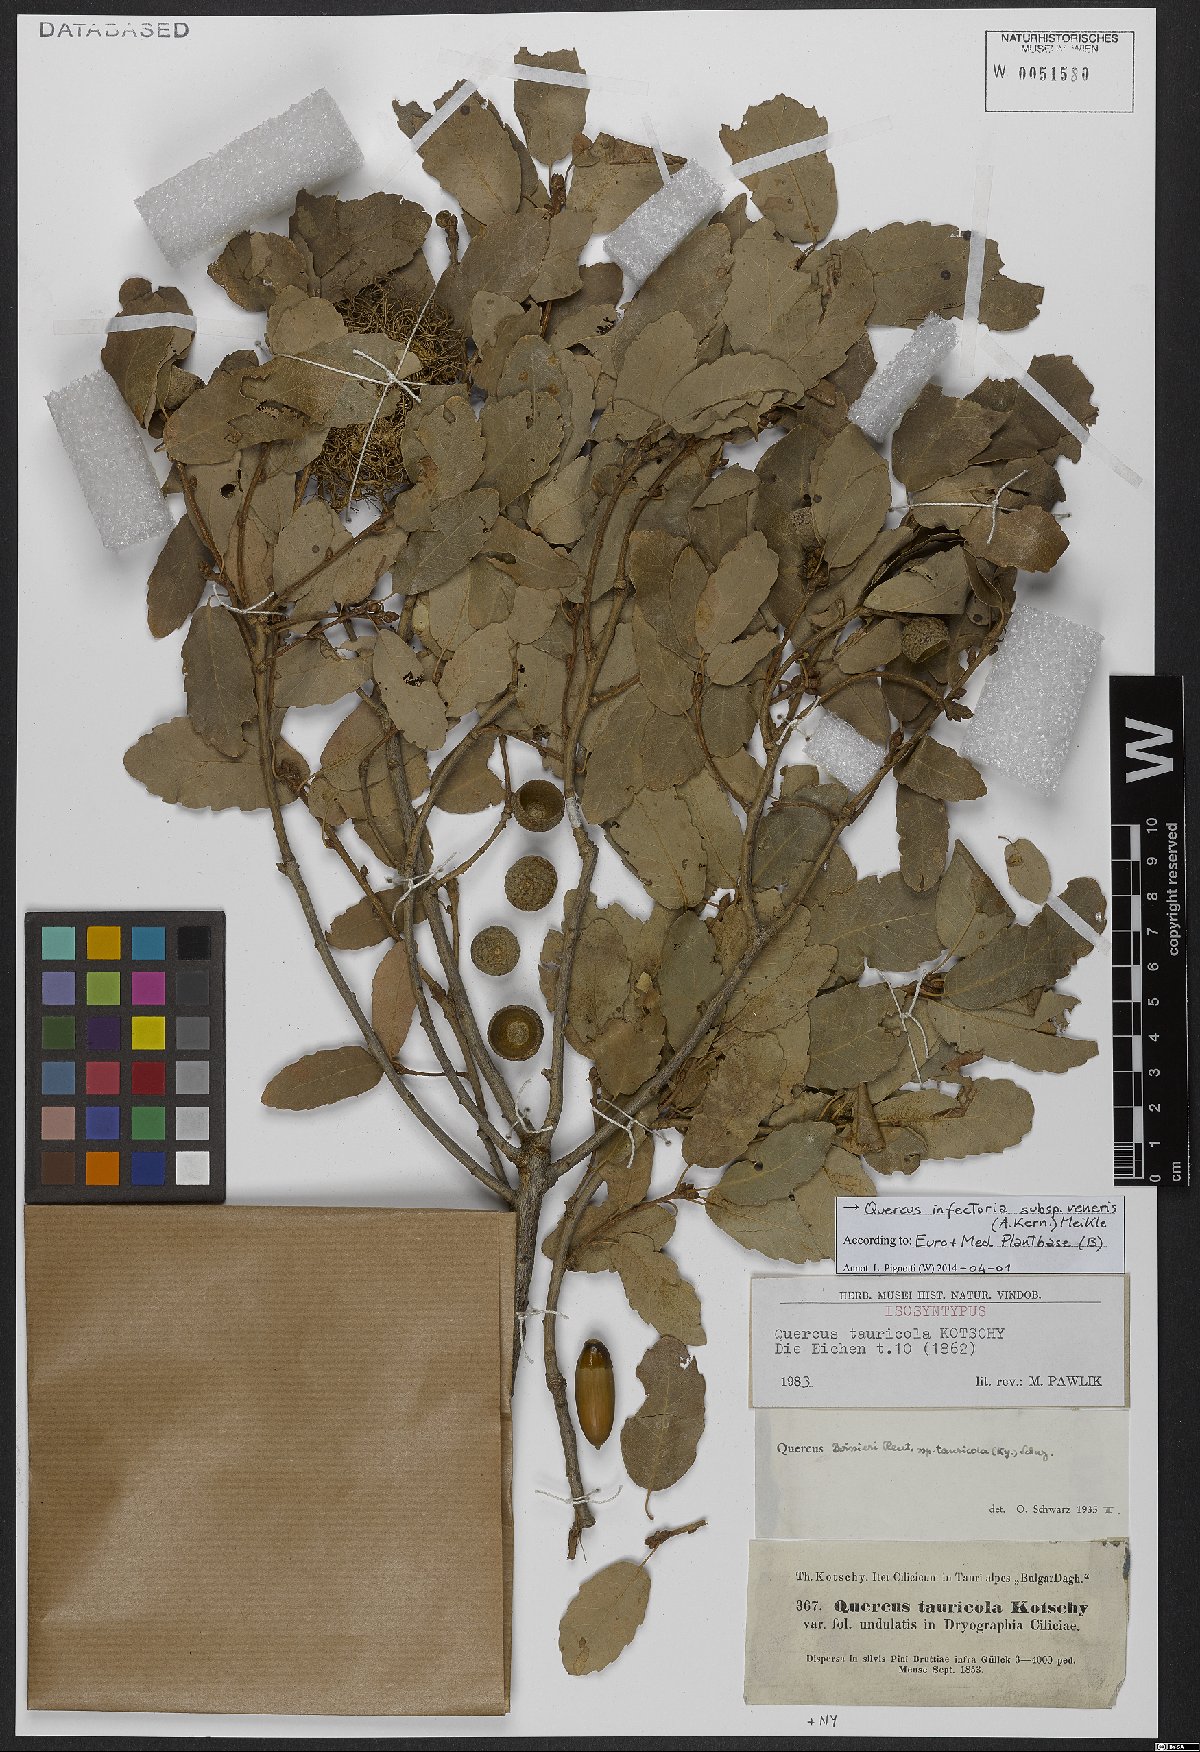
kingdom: Plantae
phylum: Tracheophyta
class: Magnoliopsida
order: Fagales
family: Fagaceae
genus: Quercus
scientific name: Quercus infectoria
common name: Aleppo oak
